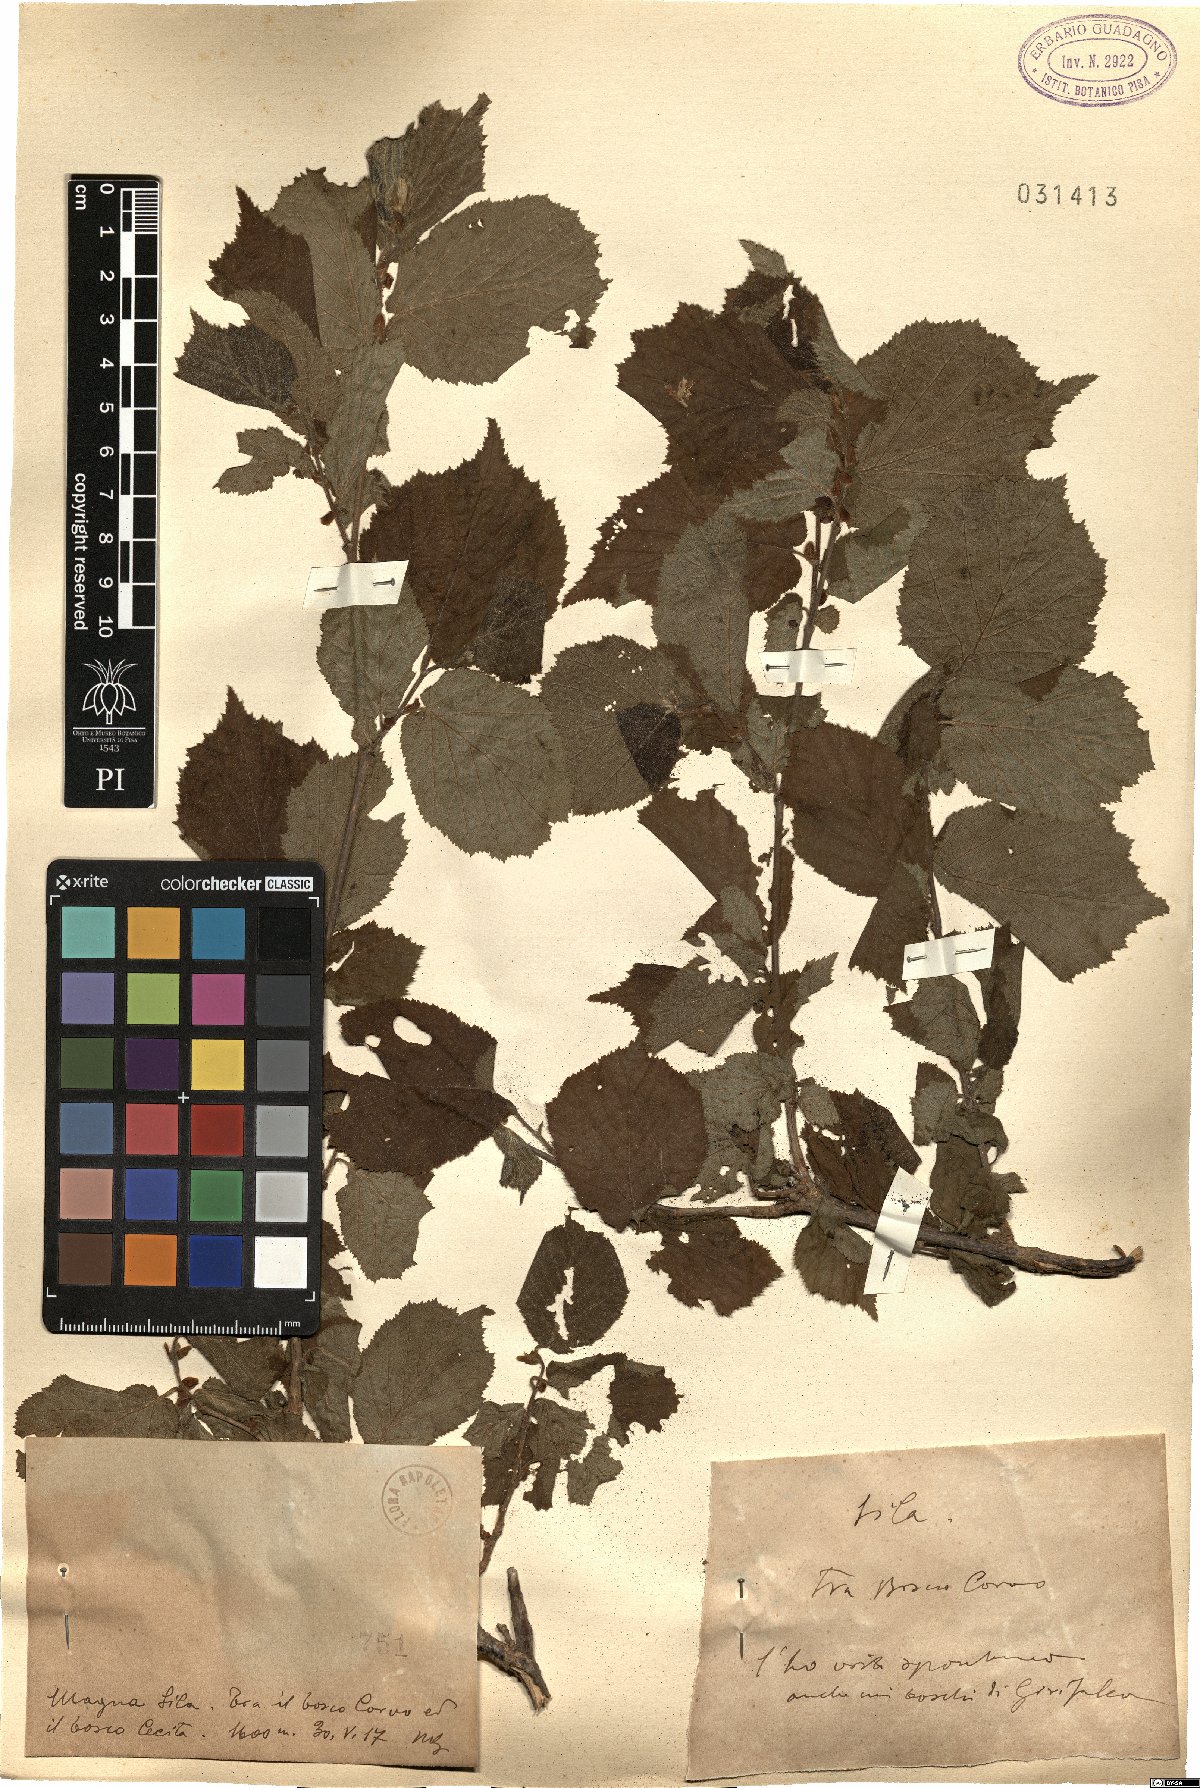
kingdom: Plantae
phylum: Tracheophyta
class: Magnoliopsida
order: Fagales
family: Betulaceae
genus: Corylus
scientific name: Corylus
